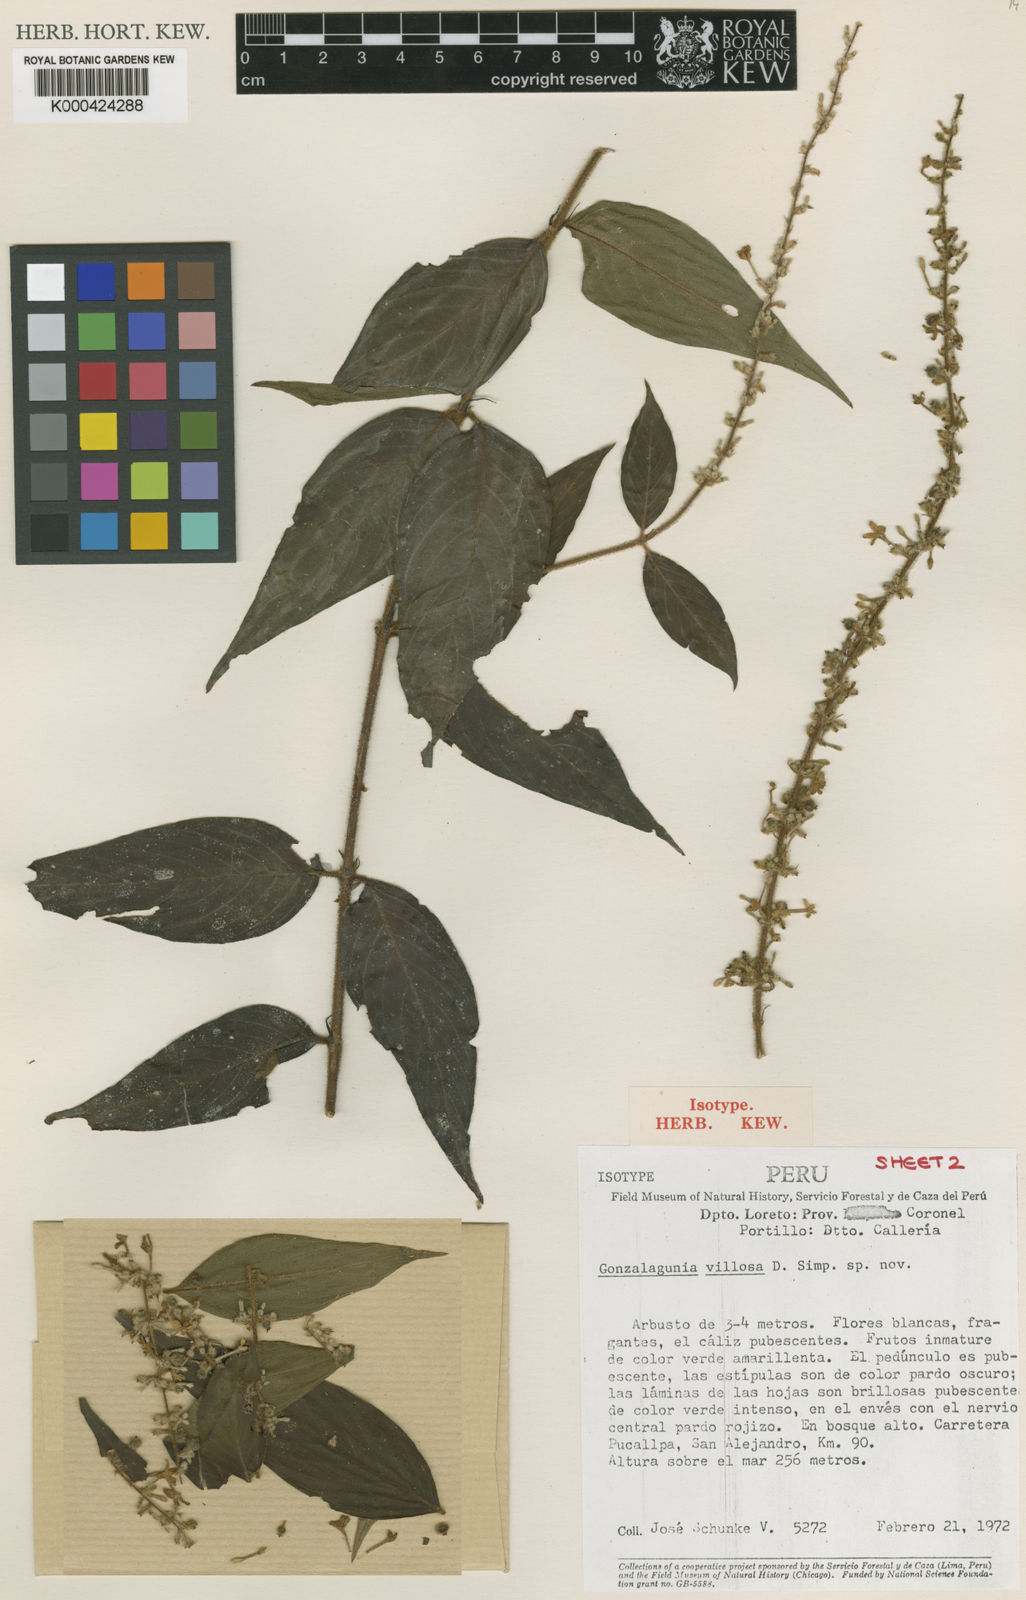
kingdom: Plantae
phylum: Tracheophyta
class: Magnoliopsida
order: Gentianales
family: Rubiaceae
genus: Gonzalagunia
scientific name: Gonzalagunia bunchosioides
